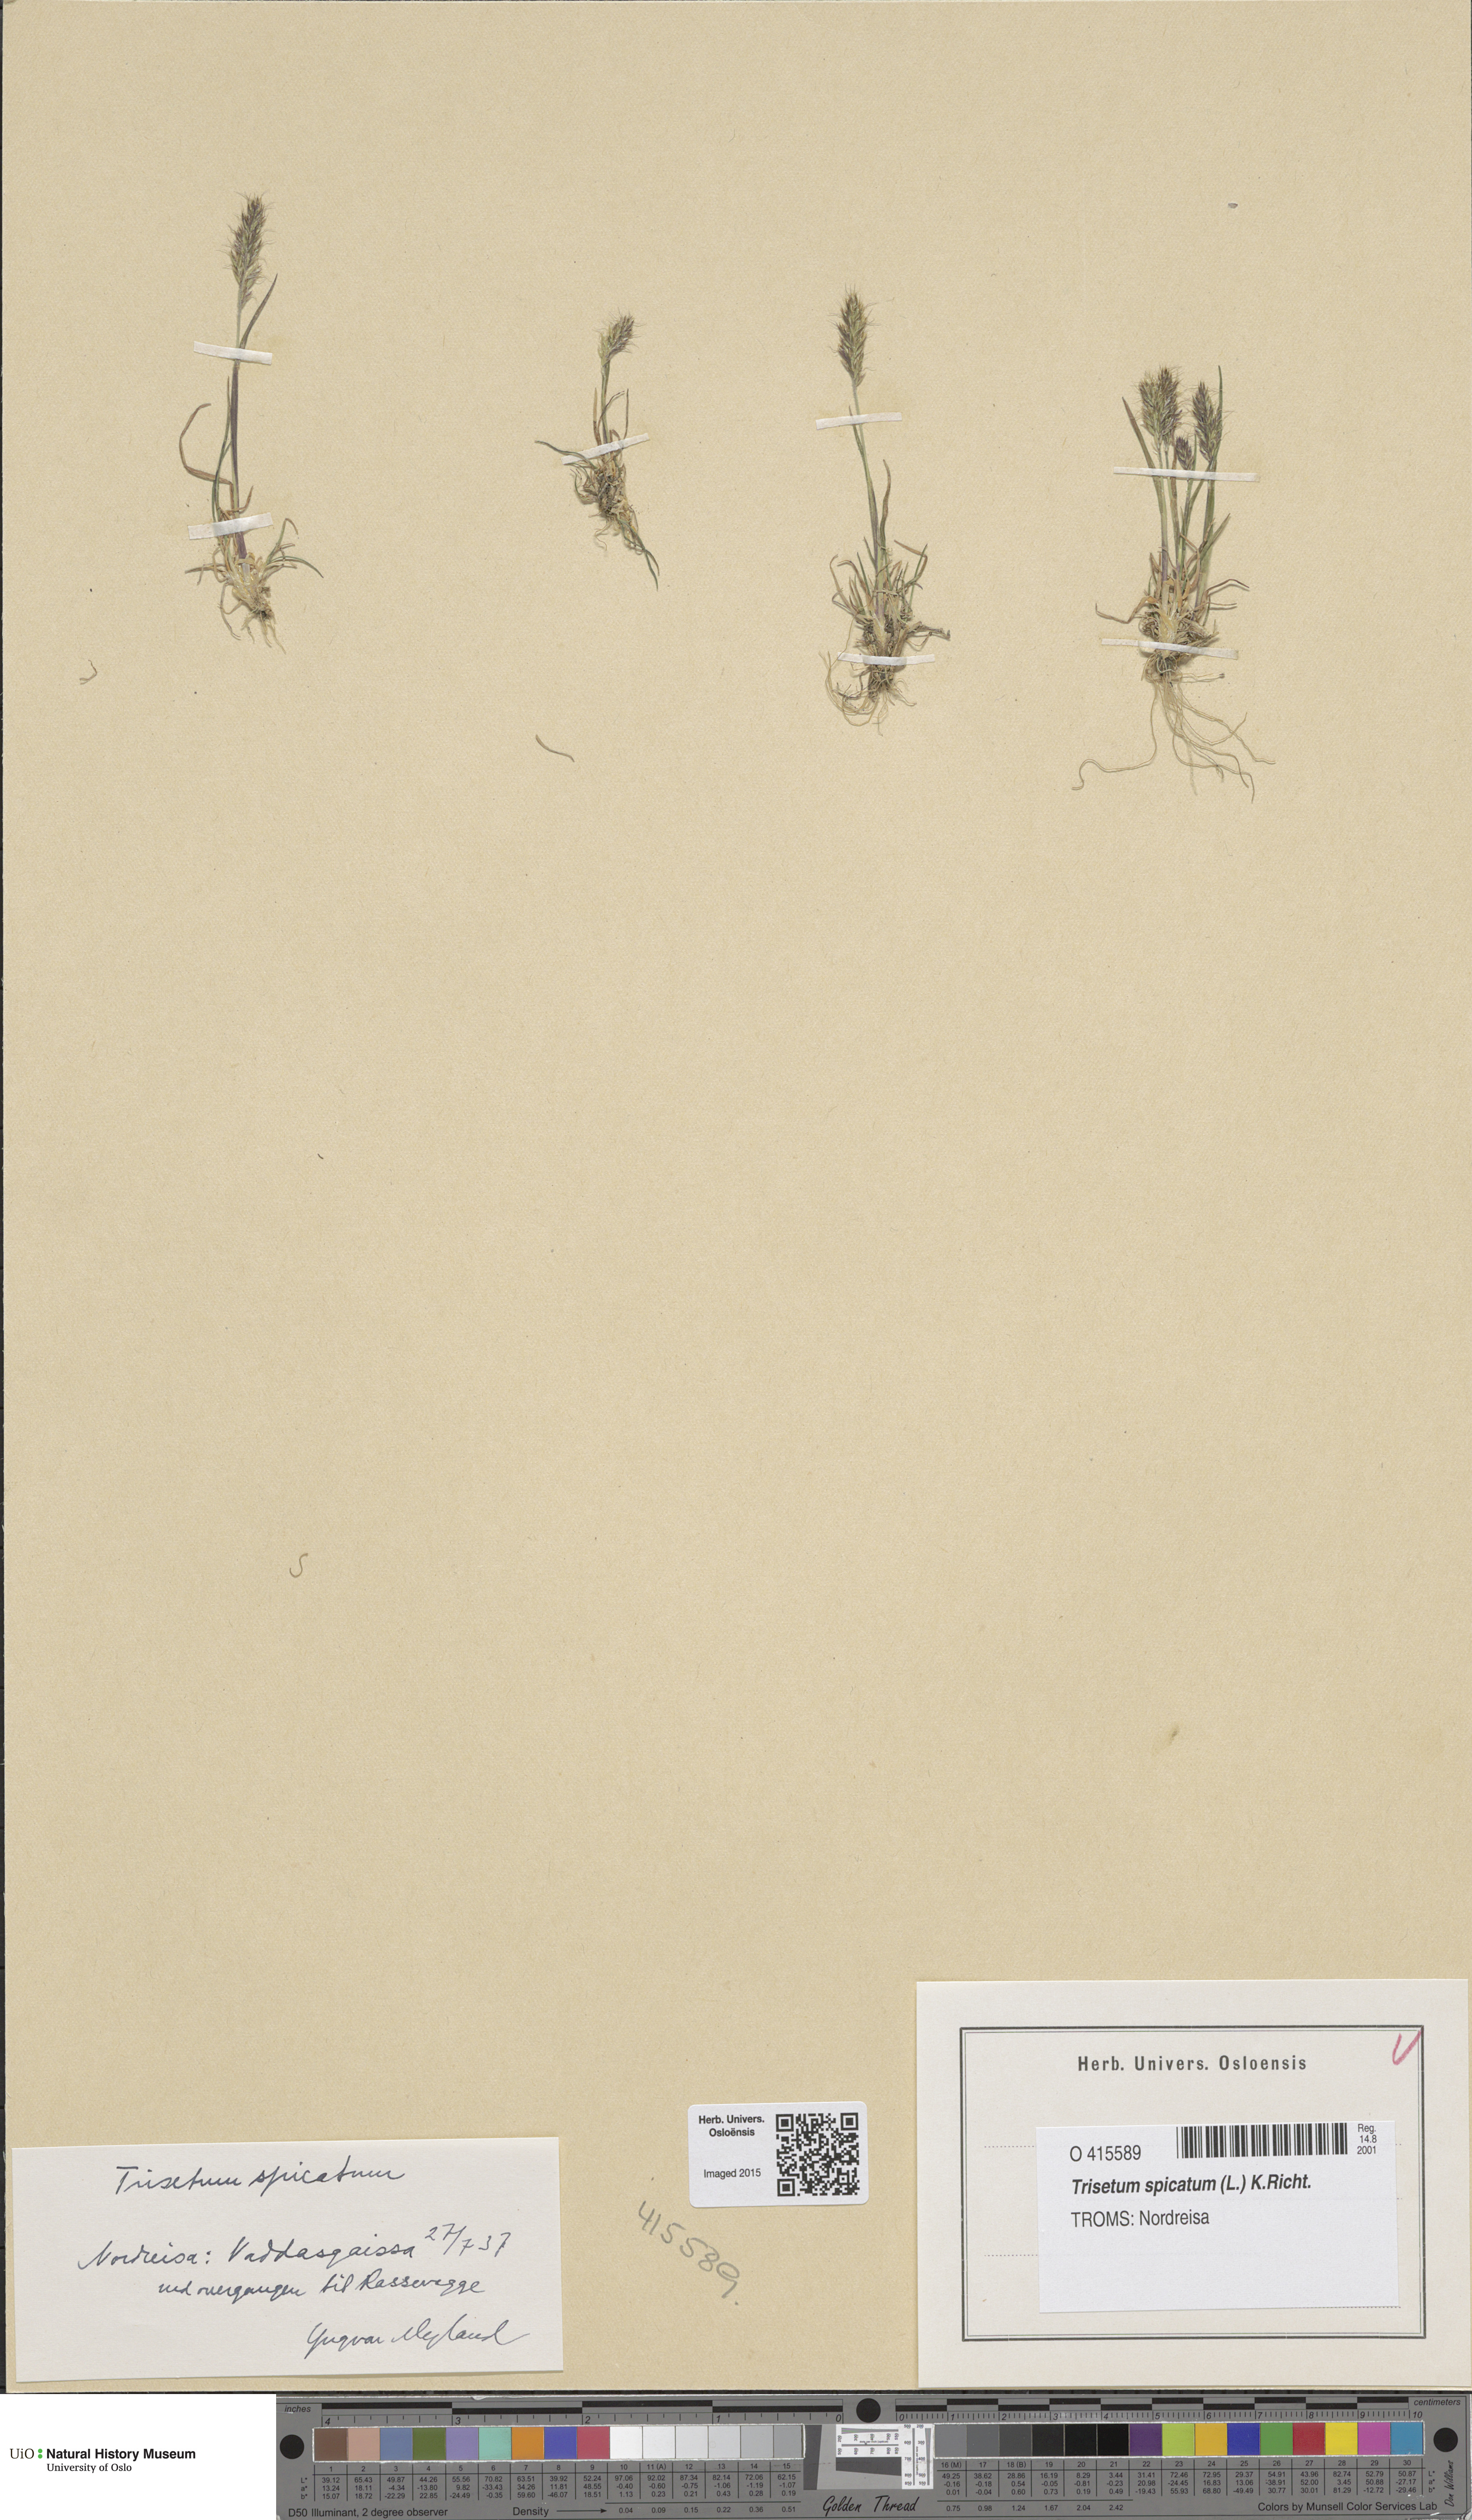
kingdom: Plantae
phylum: Tracheophyta
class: Liliopsida
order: Poales
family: Poaceae
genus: Koeleria
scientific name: Koeleria spicata
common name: Mountain trisetum
